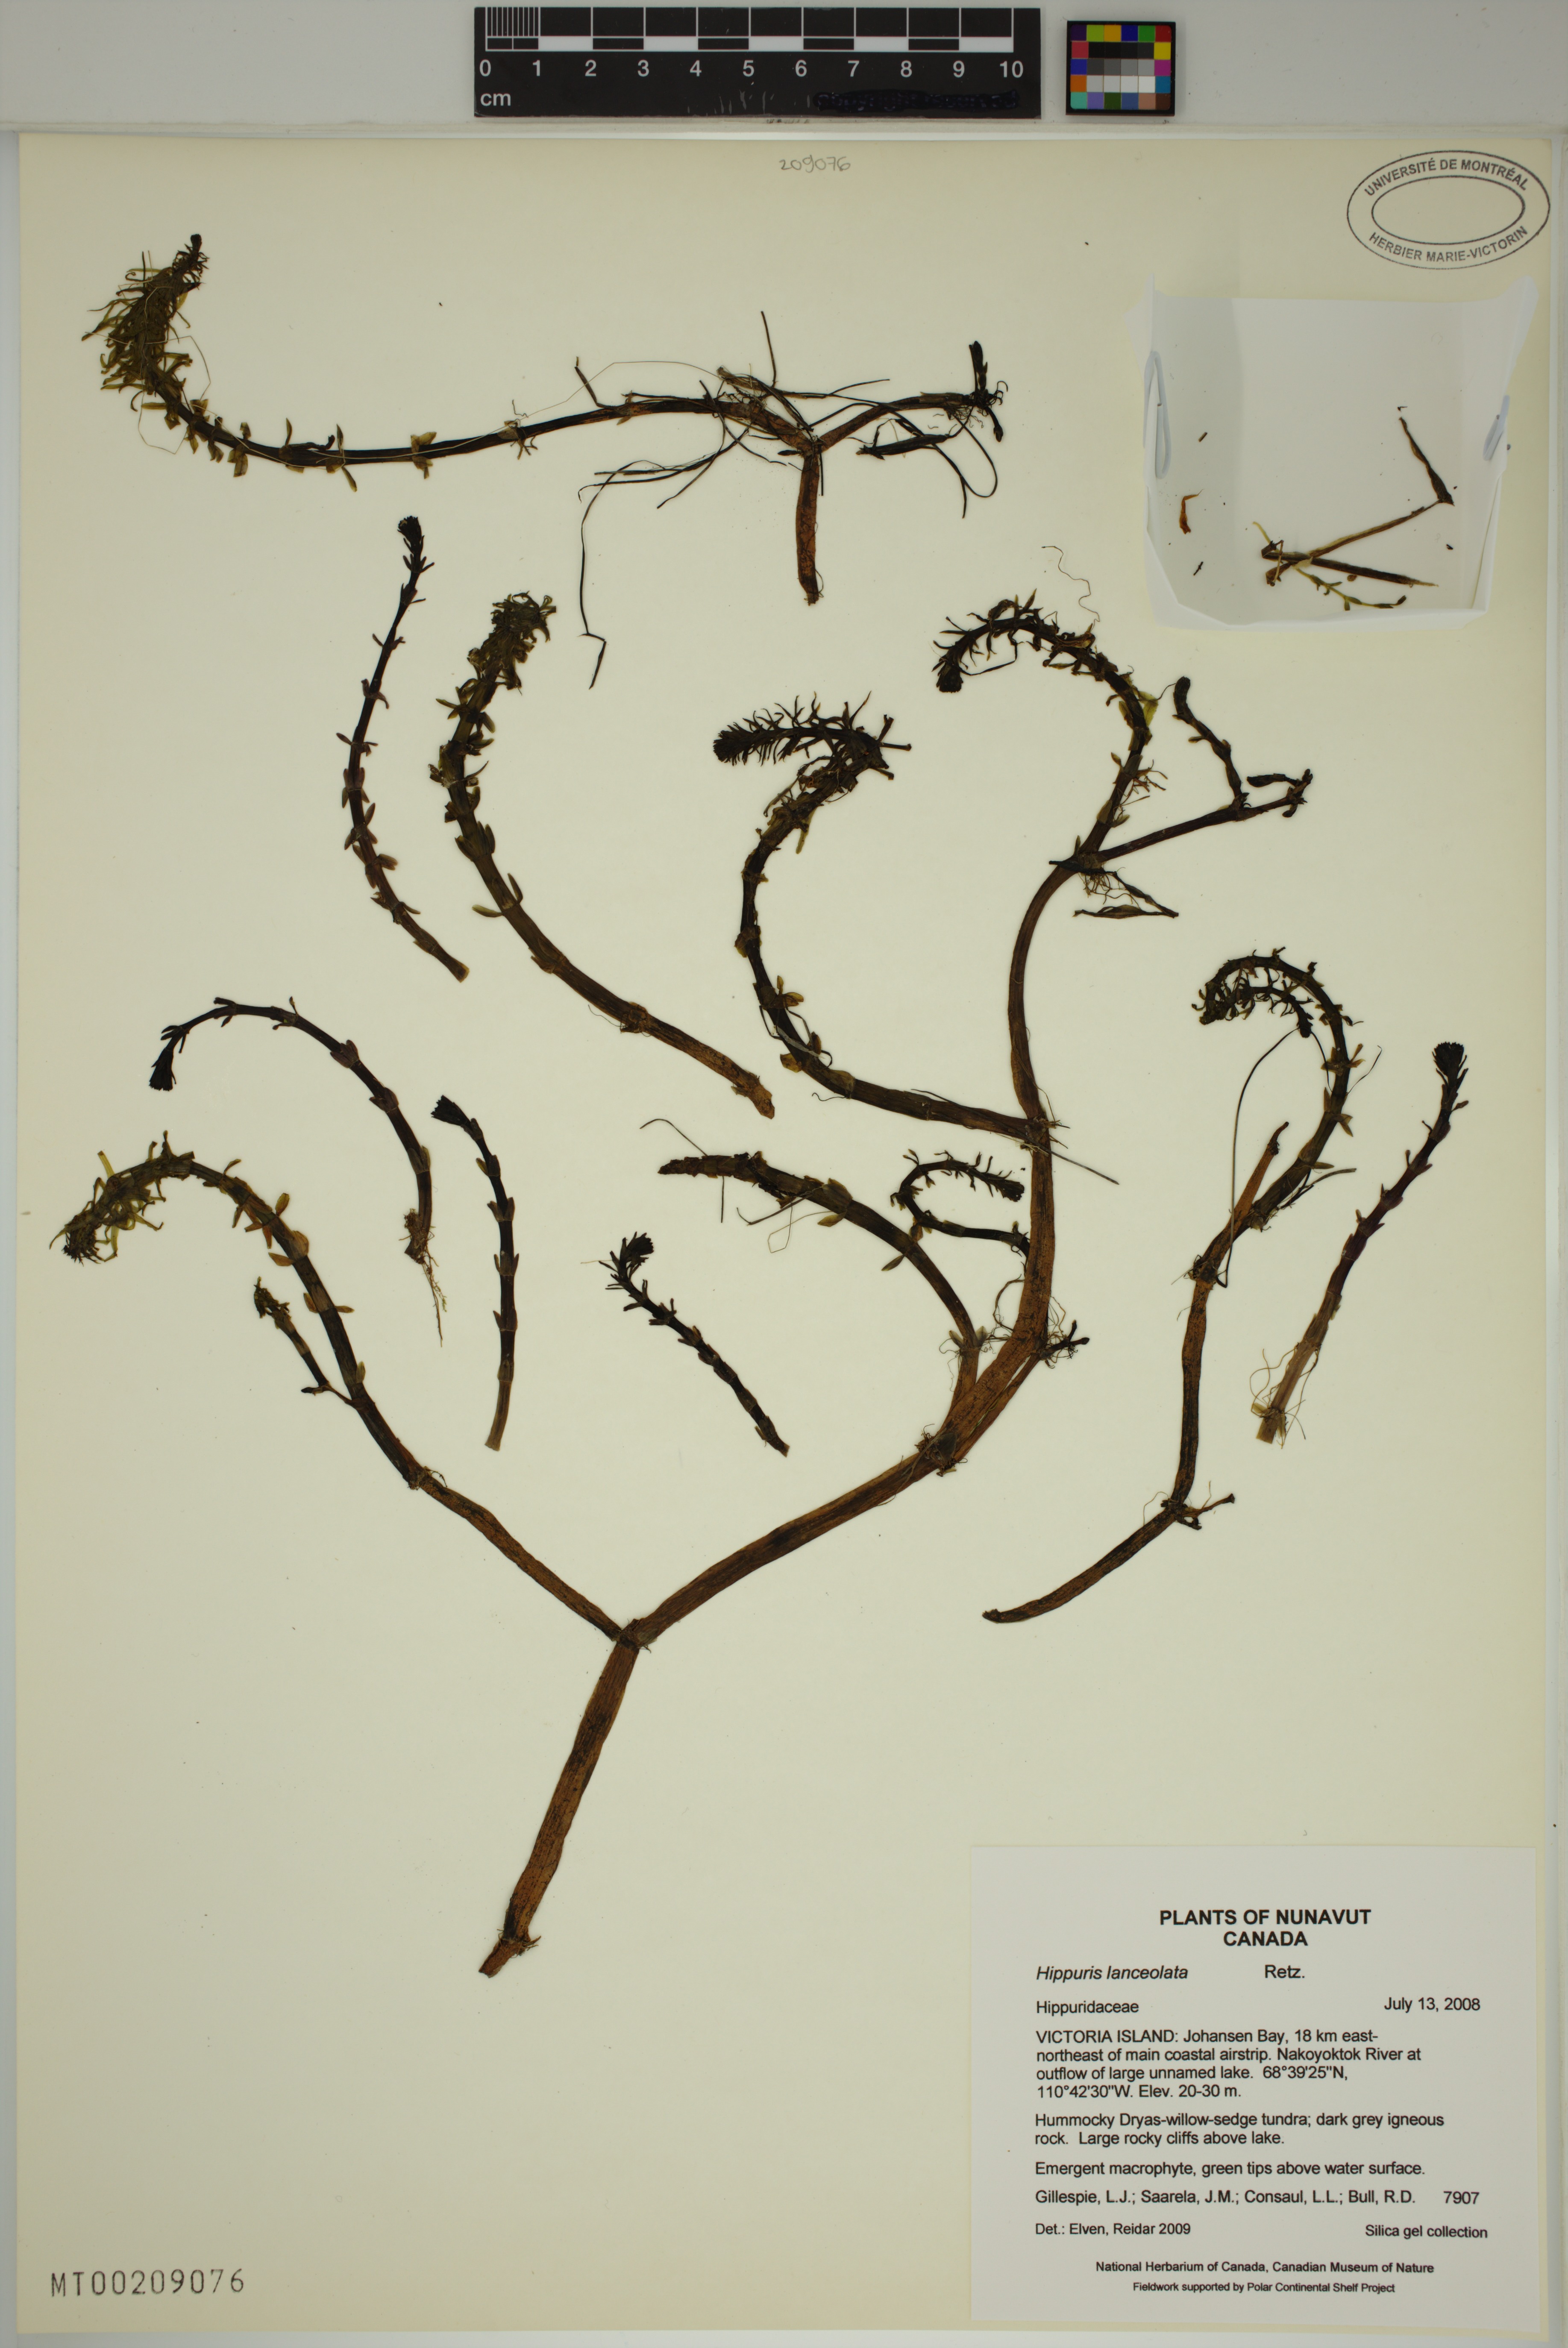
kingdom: Plantae
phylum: Tracheophyta
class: Magnoliopsida
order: Lamiales
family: Plantaginaceae
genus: Hippuris
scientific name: Hippuris lanceolata
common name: Lance-leaved mare's-tail
